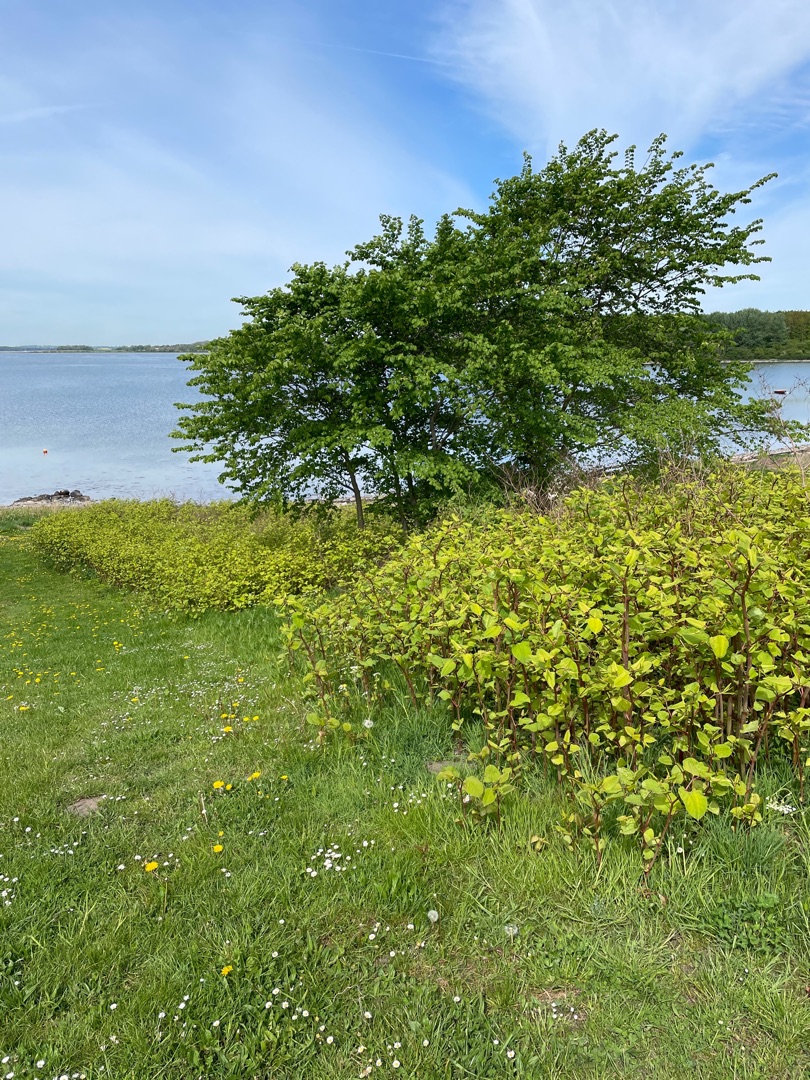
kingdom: Plantae
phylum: Tracheophyta
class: Magnoliopsida
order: Caryophyllales
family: Polygonaceae
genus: Reynoutria
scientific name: Reynoutria bohemica
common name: Hybrid-pileurt
